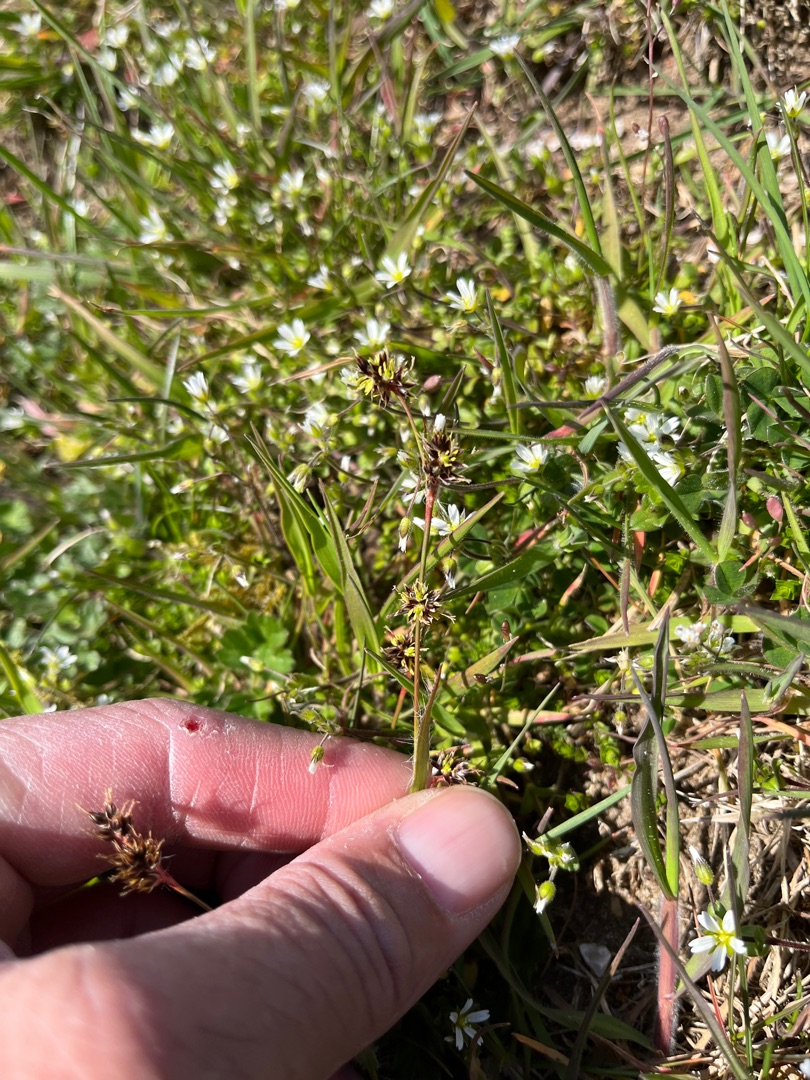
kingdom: Plantae
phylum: Tracheophyta
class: Liliopsida
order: Poales
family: Juncaceae
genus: Luzula
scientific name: Luzula campestris
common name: Mark-frytle
